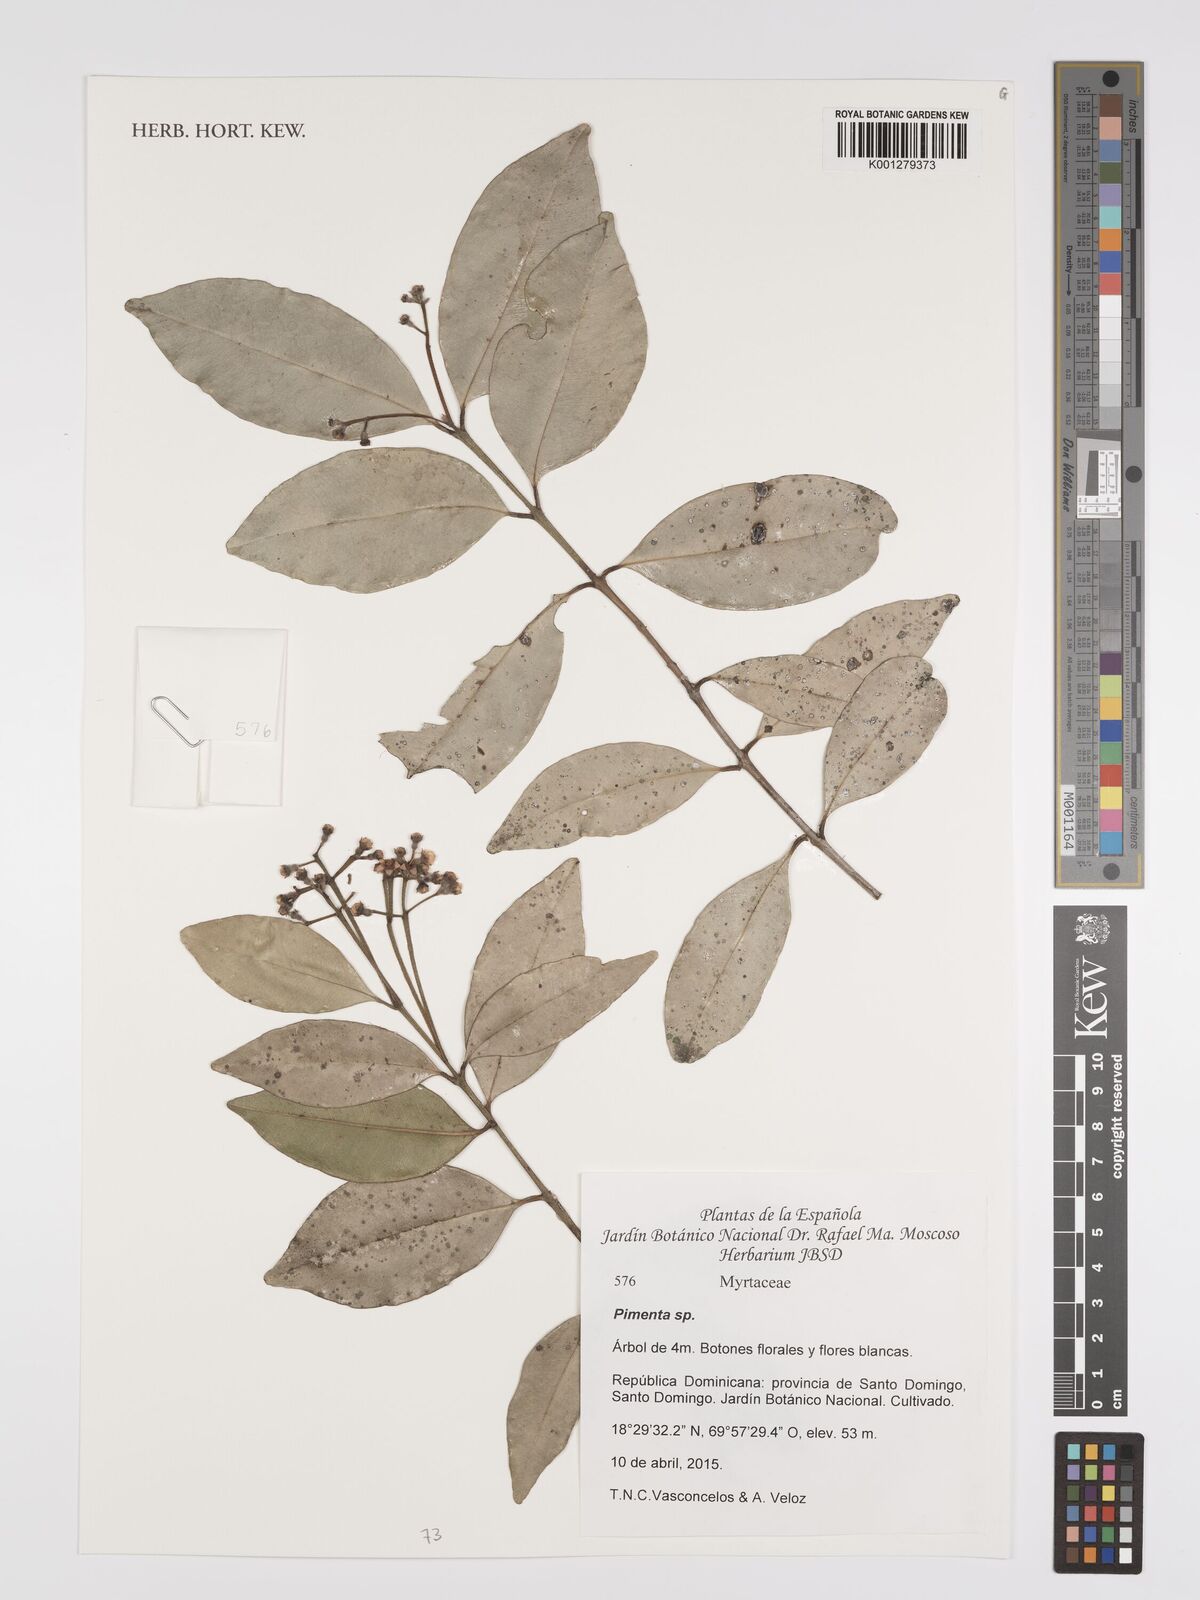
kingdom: Plantae
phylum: Tracheophyta
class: Magnoliopsida
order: Myrtales
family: Myrtaceae
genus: Pimenta
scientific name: Pimenta
